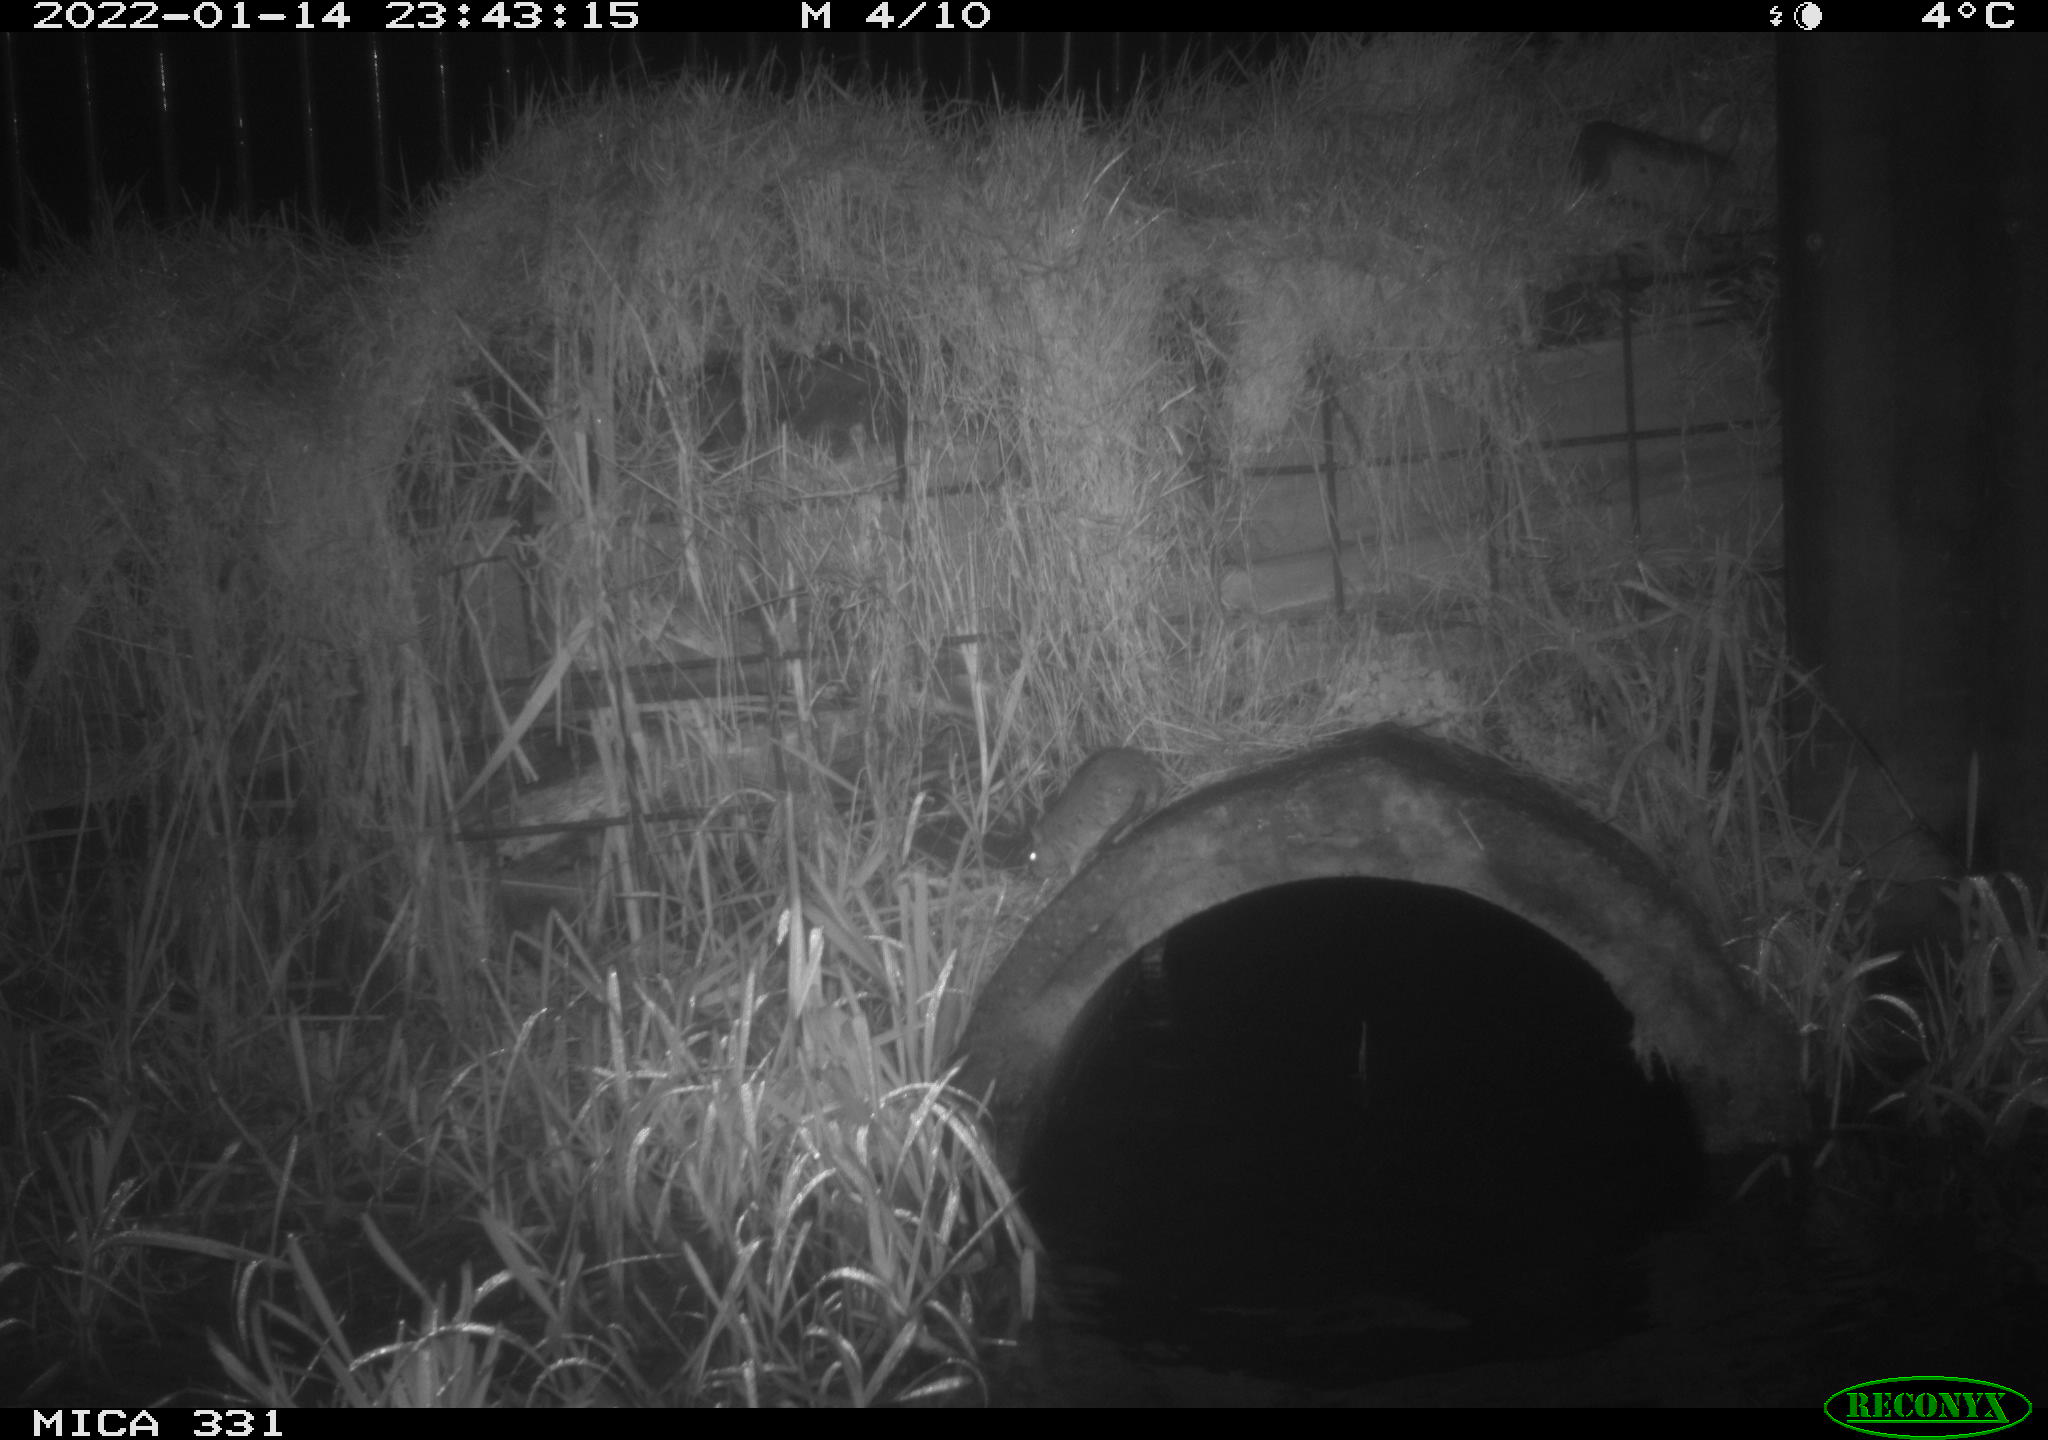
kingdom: Animalia
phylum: Chordata
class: Mammalia
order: Rodentia
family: Muridae
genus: Rattus
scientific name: Rattus norvegicus
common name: Brown rat
